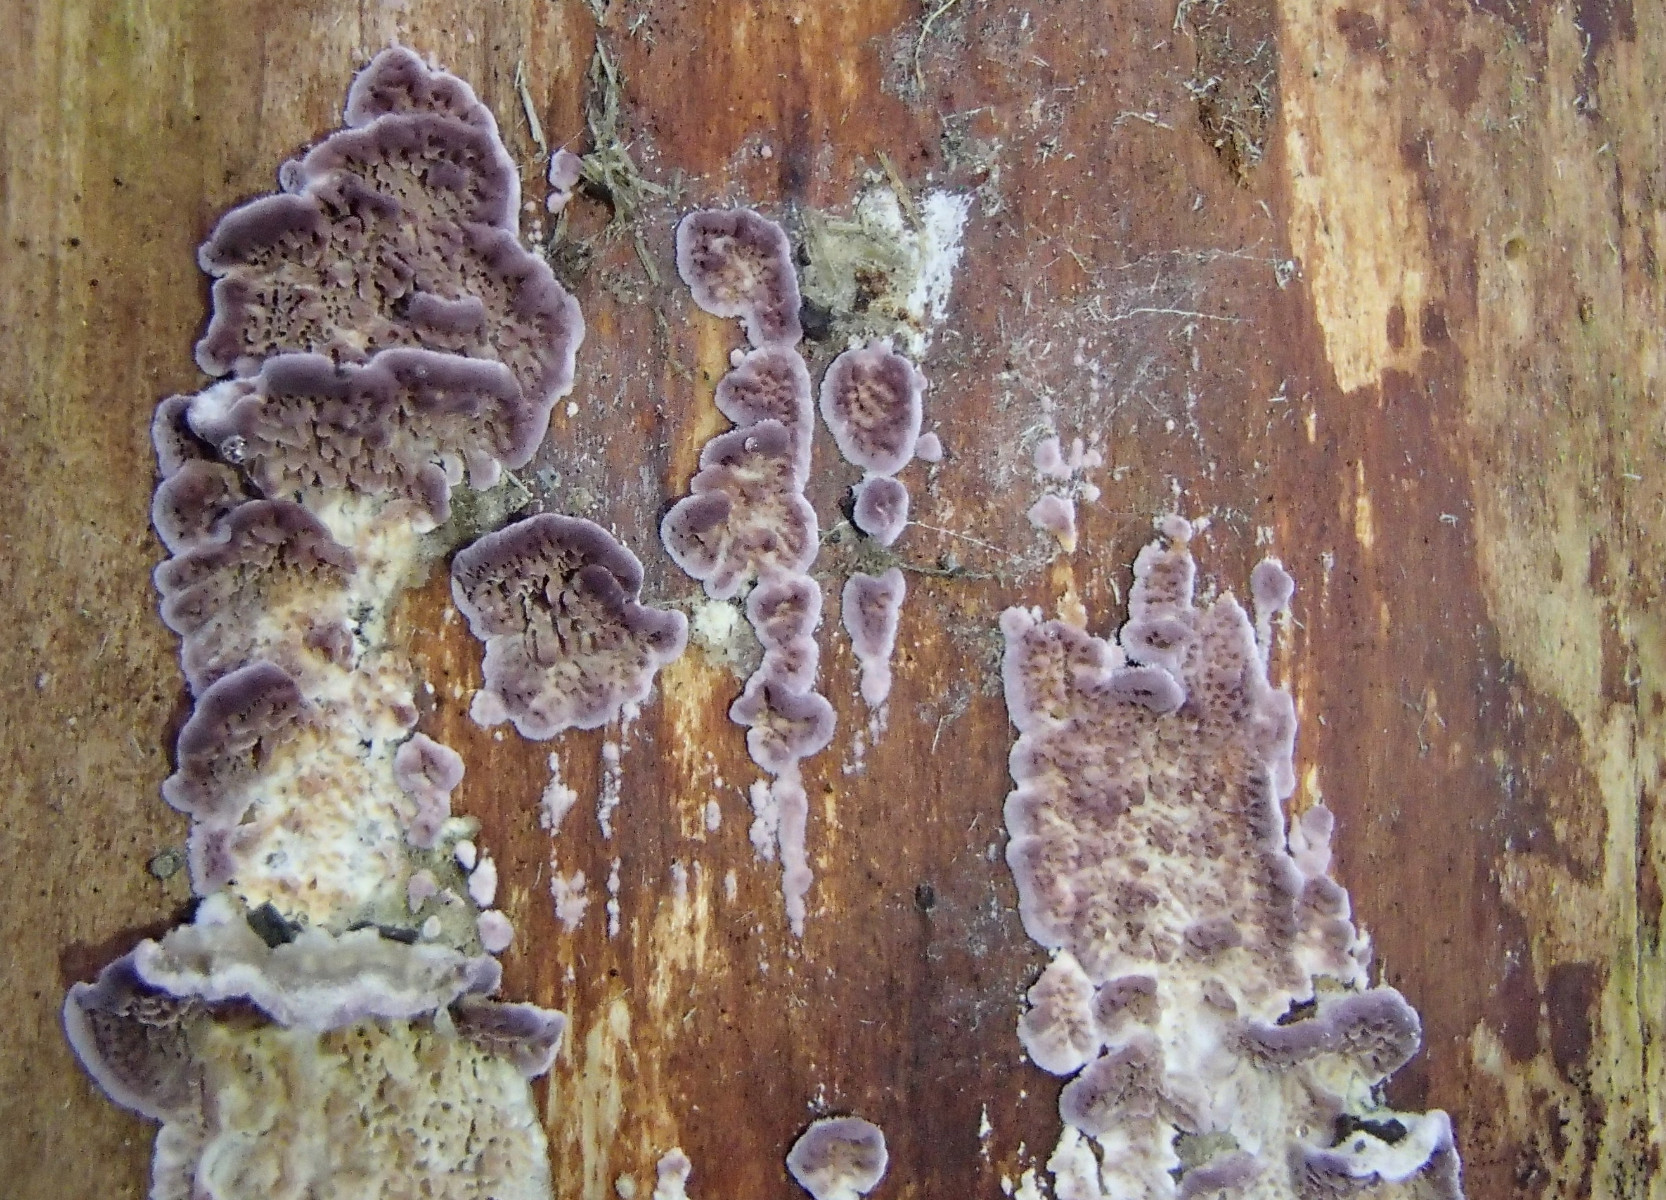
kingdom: Fungi
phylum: Basidiomycota
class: Agaricomycetes
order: Hymenochaetales
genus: Trichaptum
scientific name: Trichaptum abietinum
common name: almindelig violporesvamp
